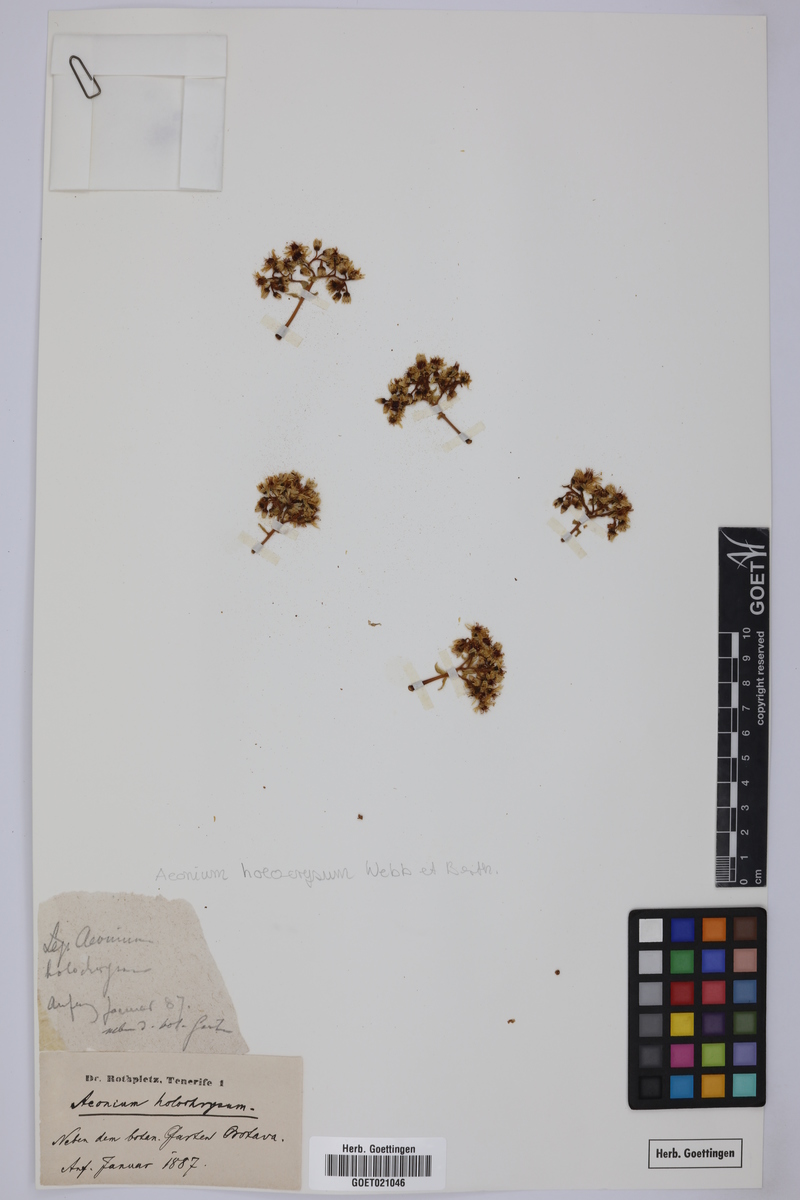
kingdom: Plantae
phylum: Tracheophyta
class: Magnoliopsida
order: Saxifragales
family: Crassulaceae
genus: Aeonium
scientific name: Aeonium arboreum
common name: Tree aeonium
